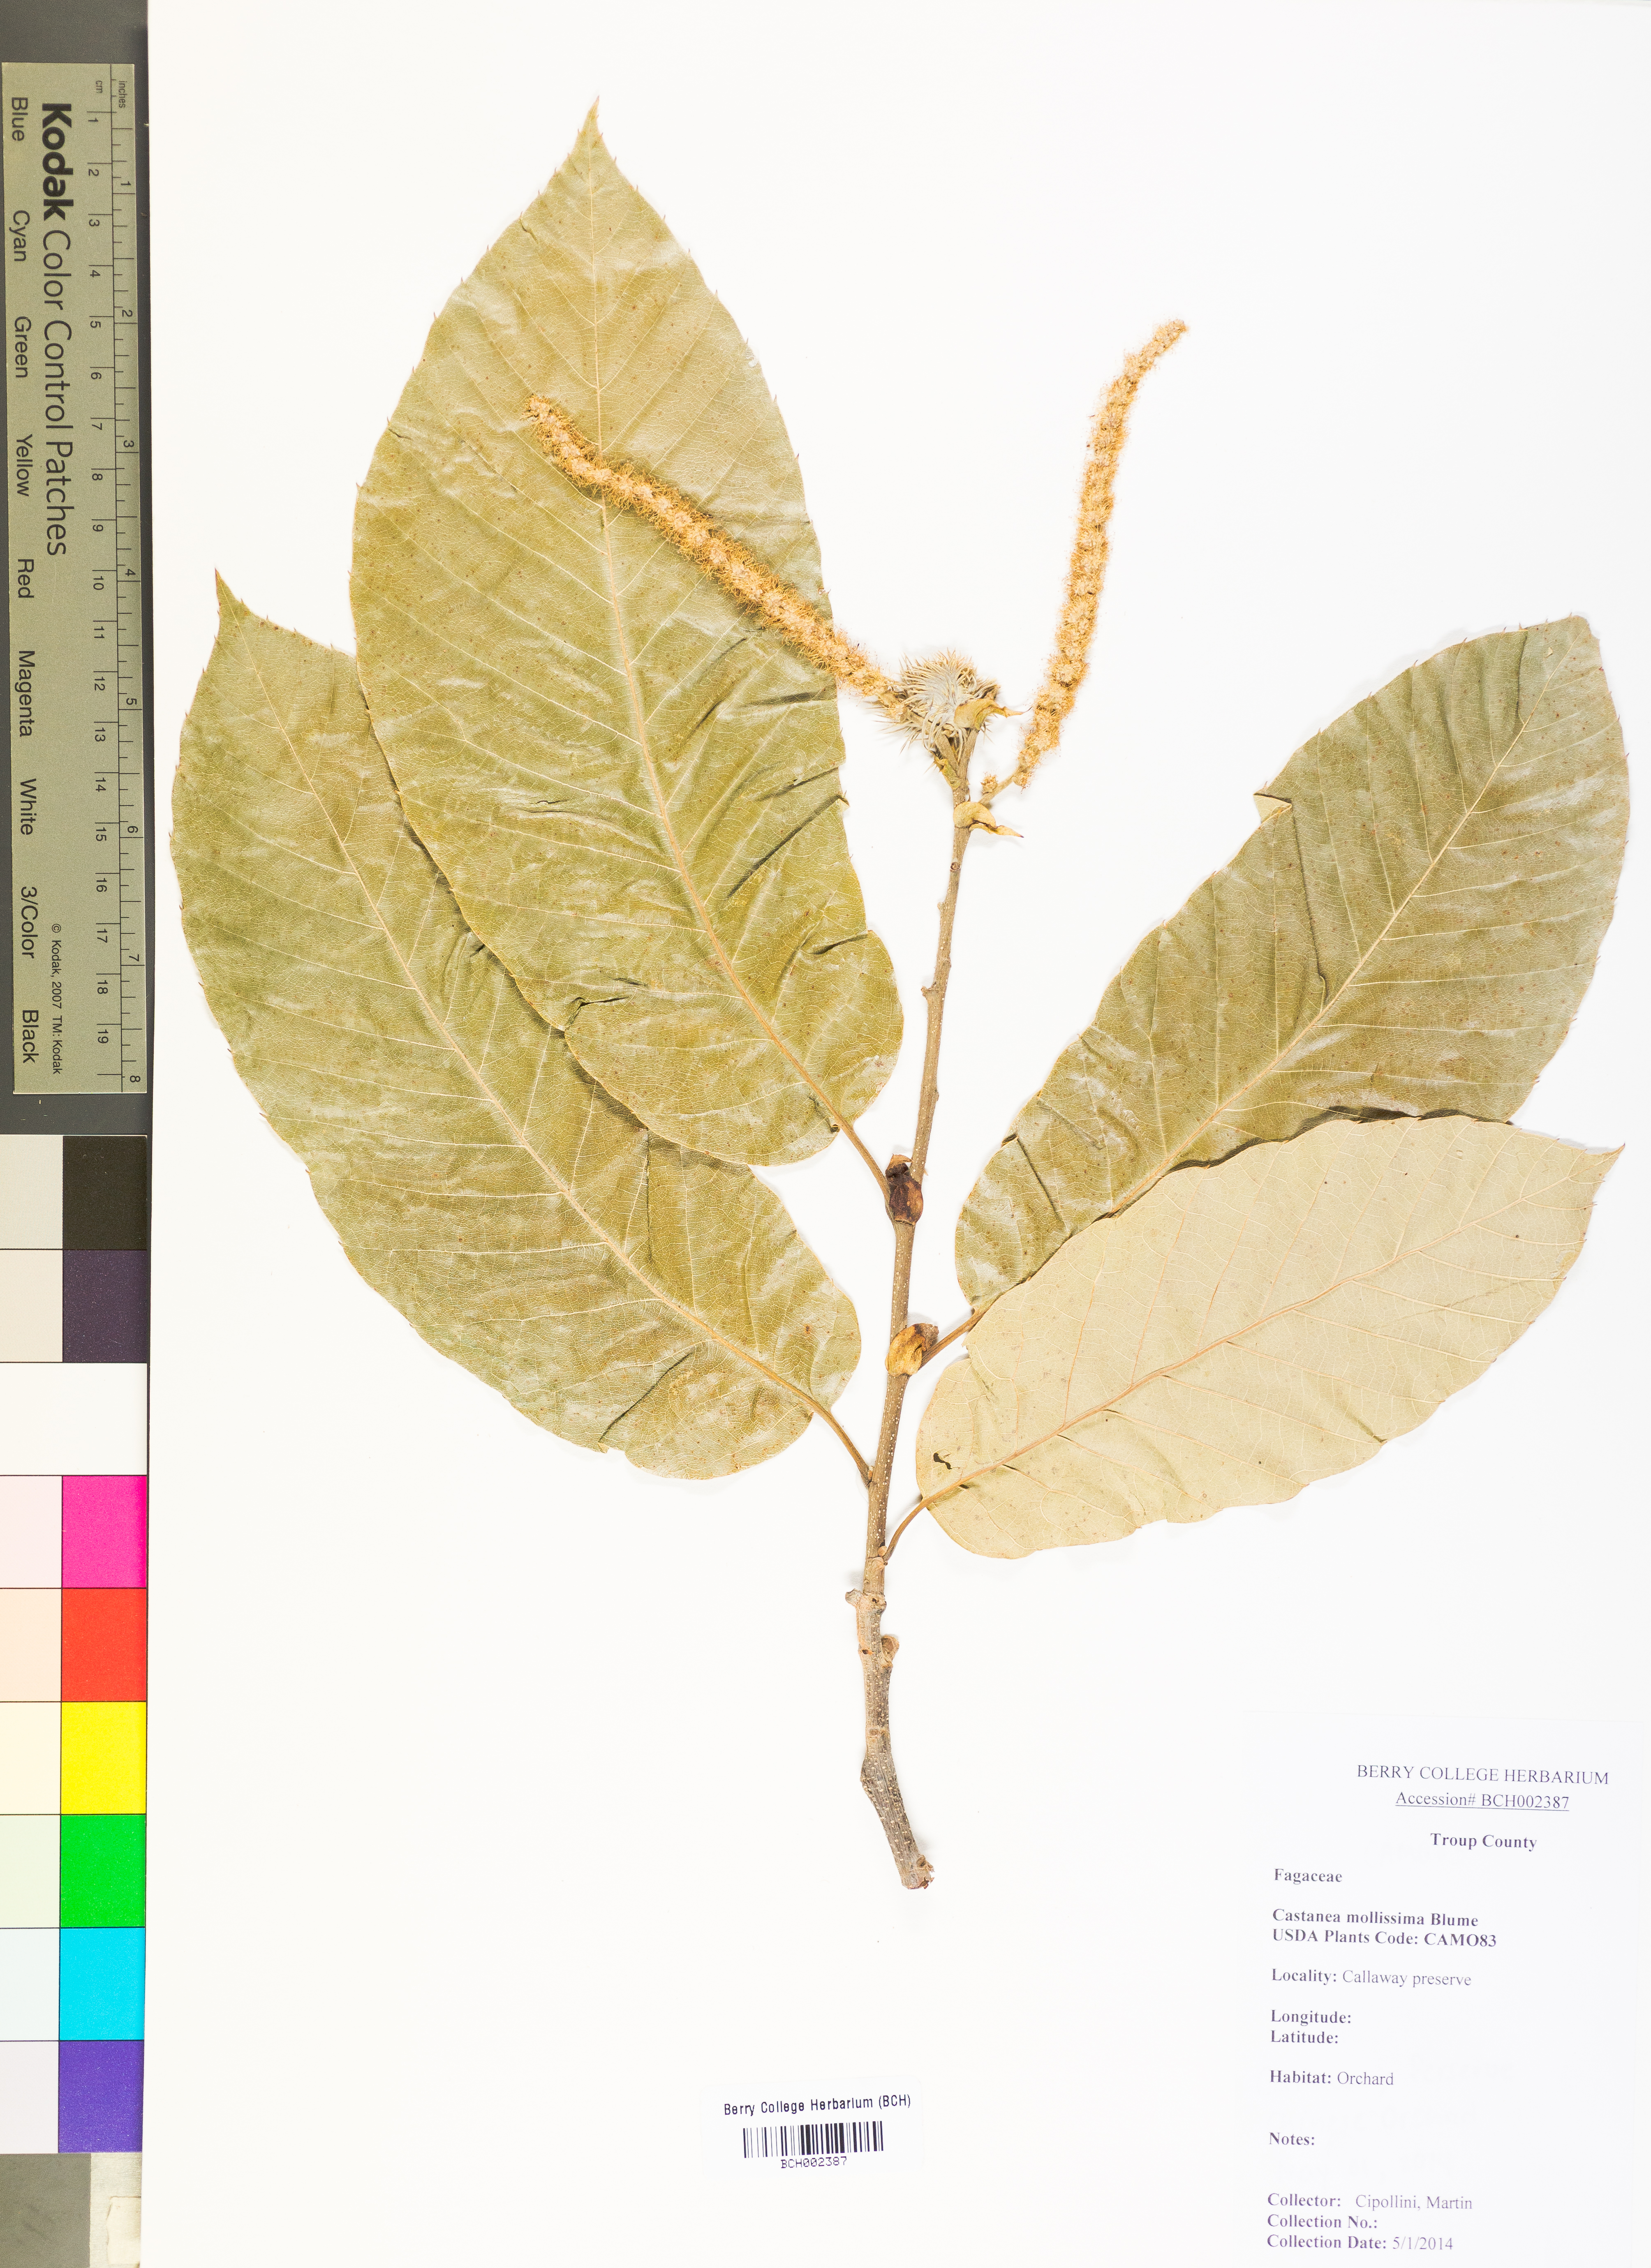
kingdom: Plantae
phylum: Tracheophyta
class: Magnoliopsida
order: Fagales
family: Fagaceae
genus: Castanea
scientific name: Castanea mollissima
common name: Chinese chestnut
